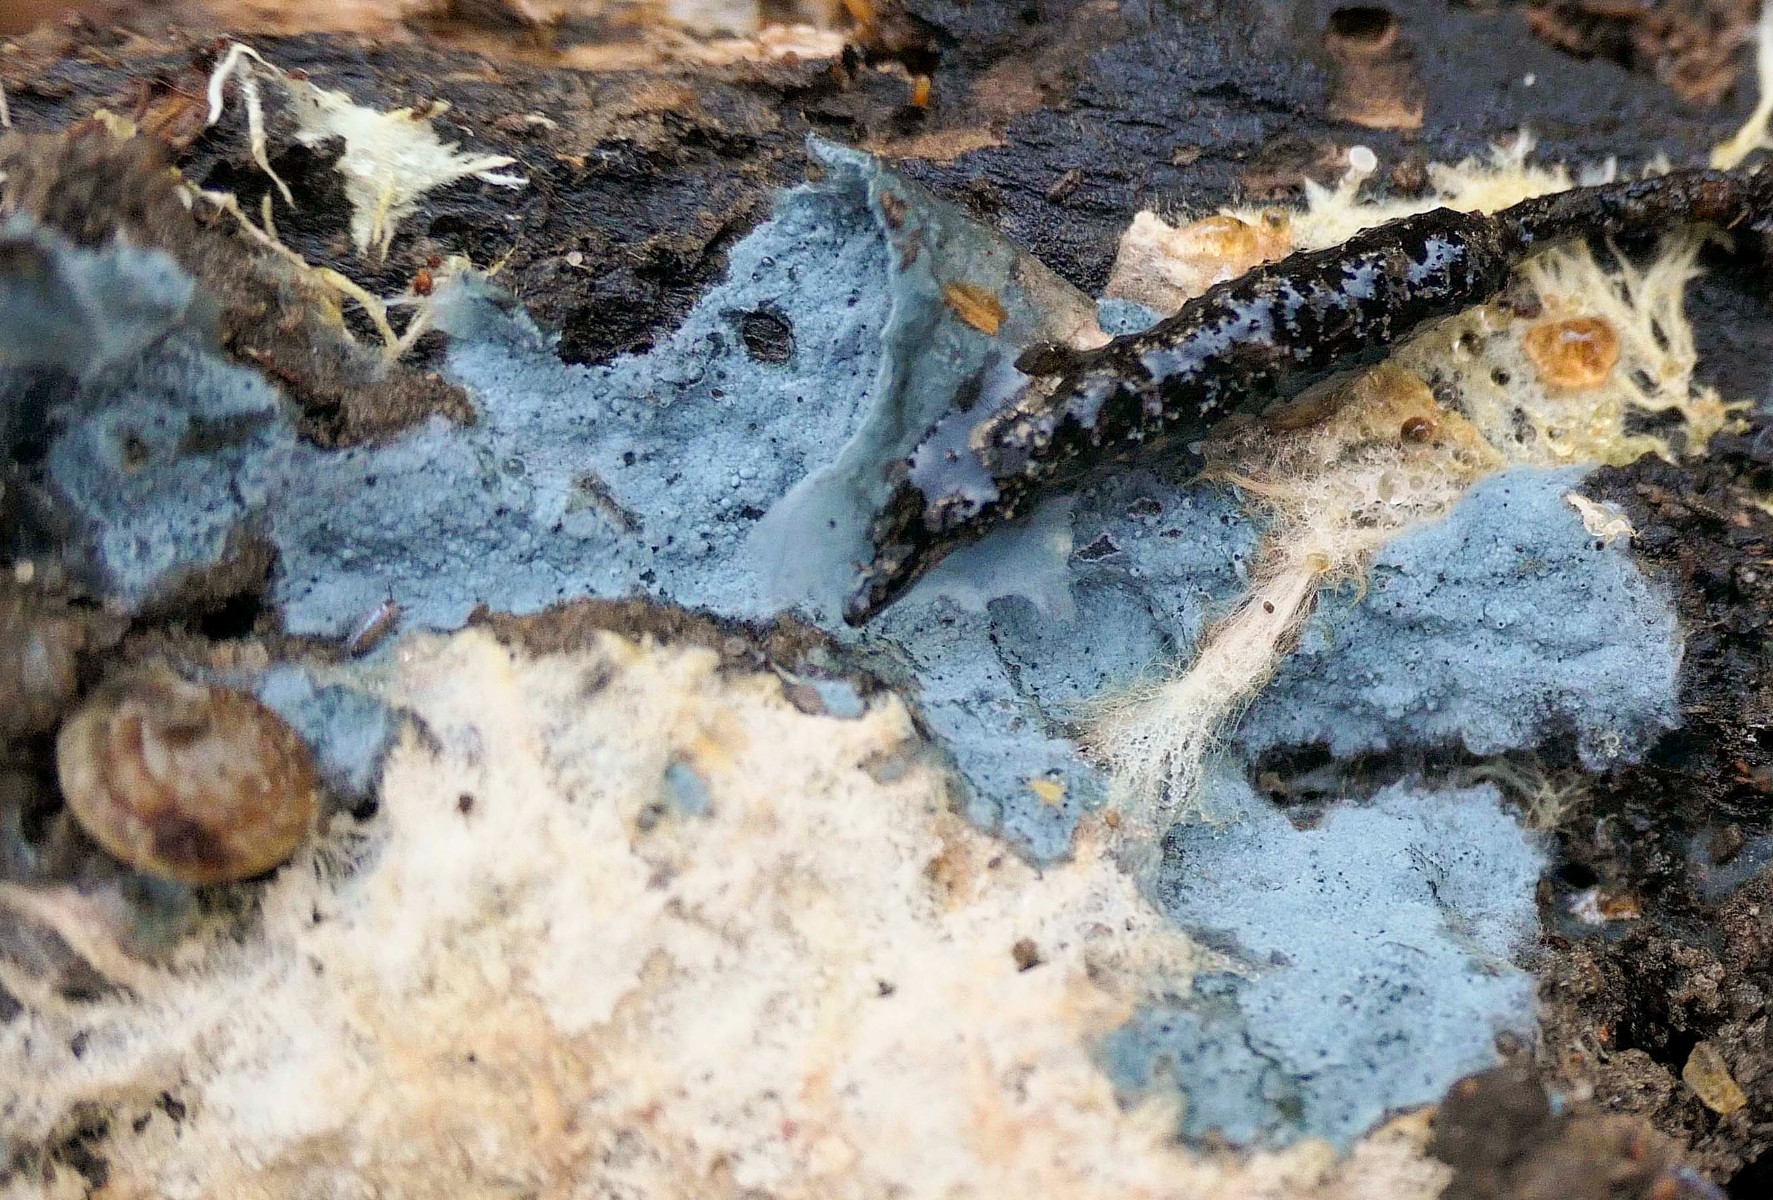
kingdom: Fungi
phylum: Basidiomycota
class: Agaricomycetes
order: Atheliales
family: Atheliaceae
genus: Byssocorticium
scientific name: Byssocorticium atrovirens
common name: blå førnehinde
